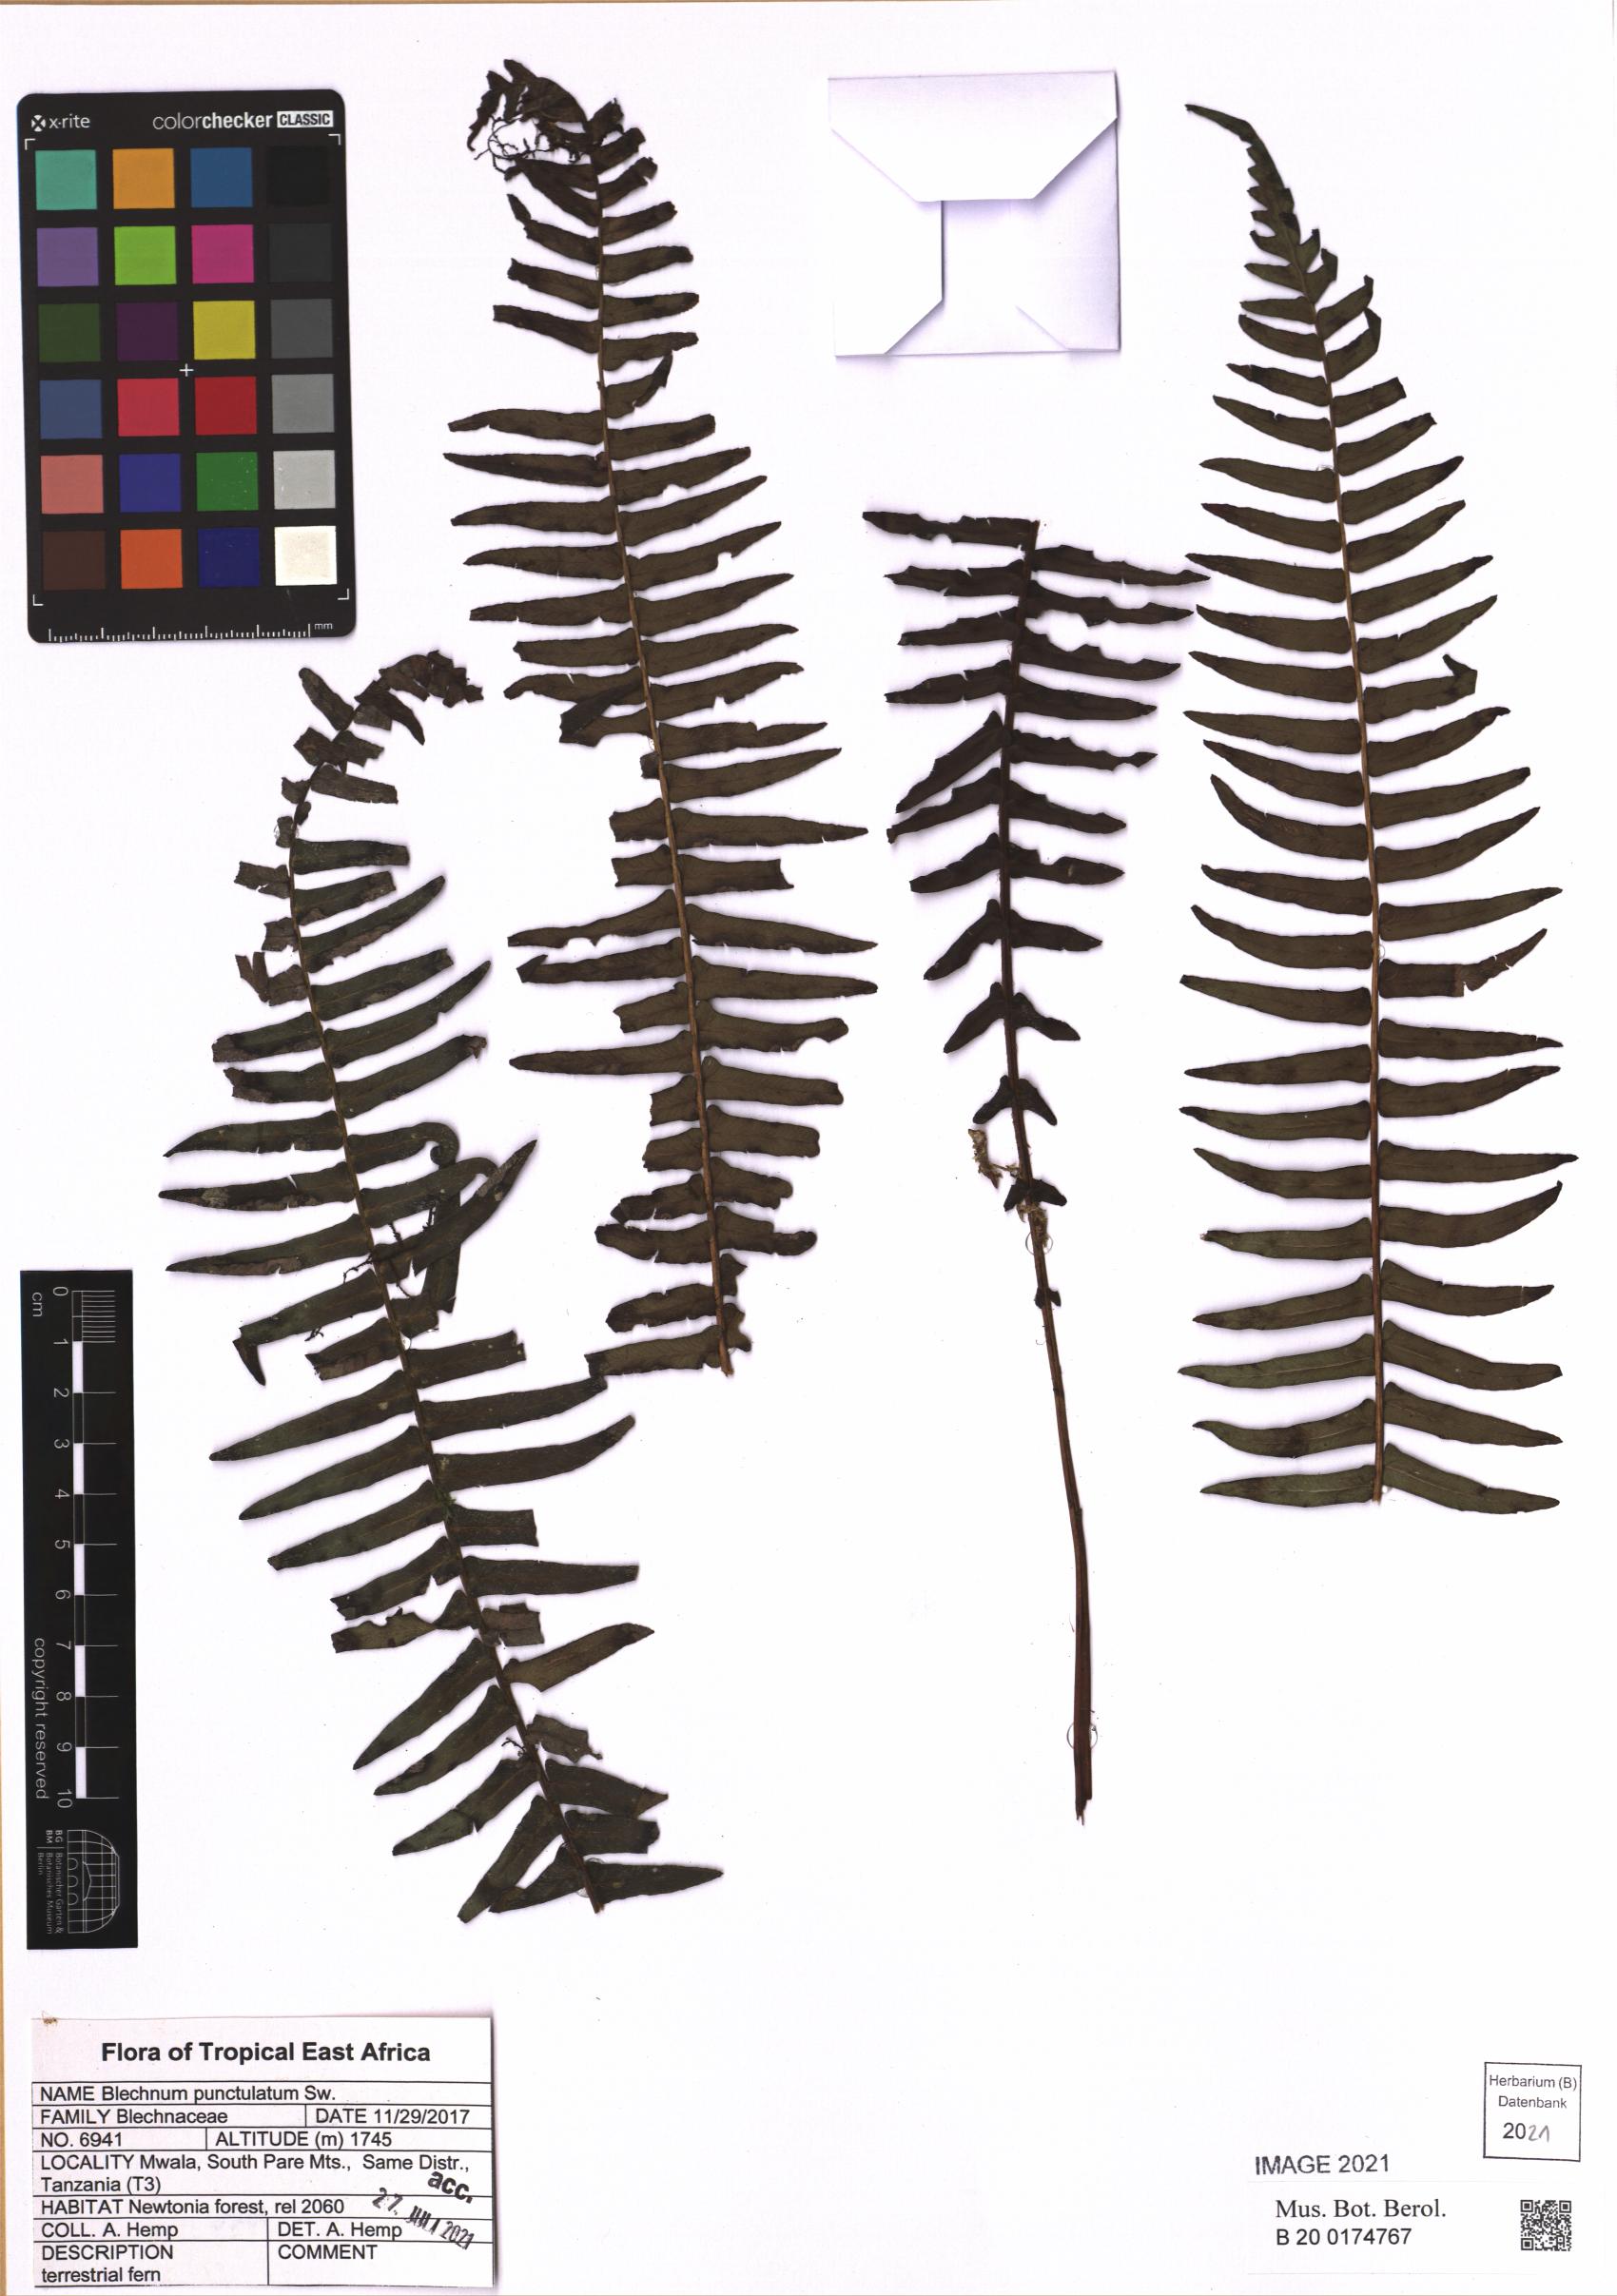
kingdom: Plantae
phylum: Tracheophyta
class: Polypodiopsida
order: Polypodiales
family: Blechnaceae
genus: Blechnum
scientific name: Blechnum punctulatum
